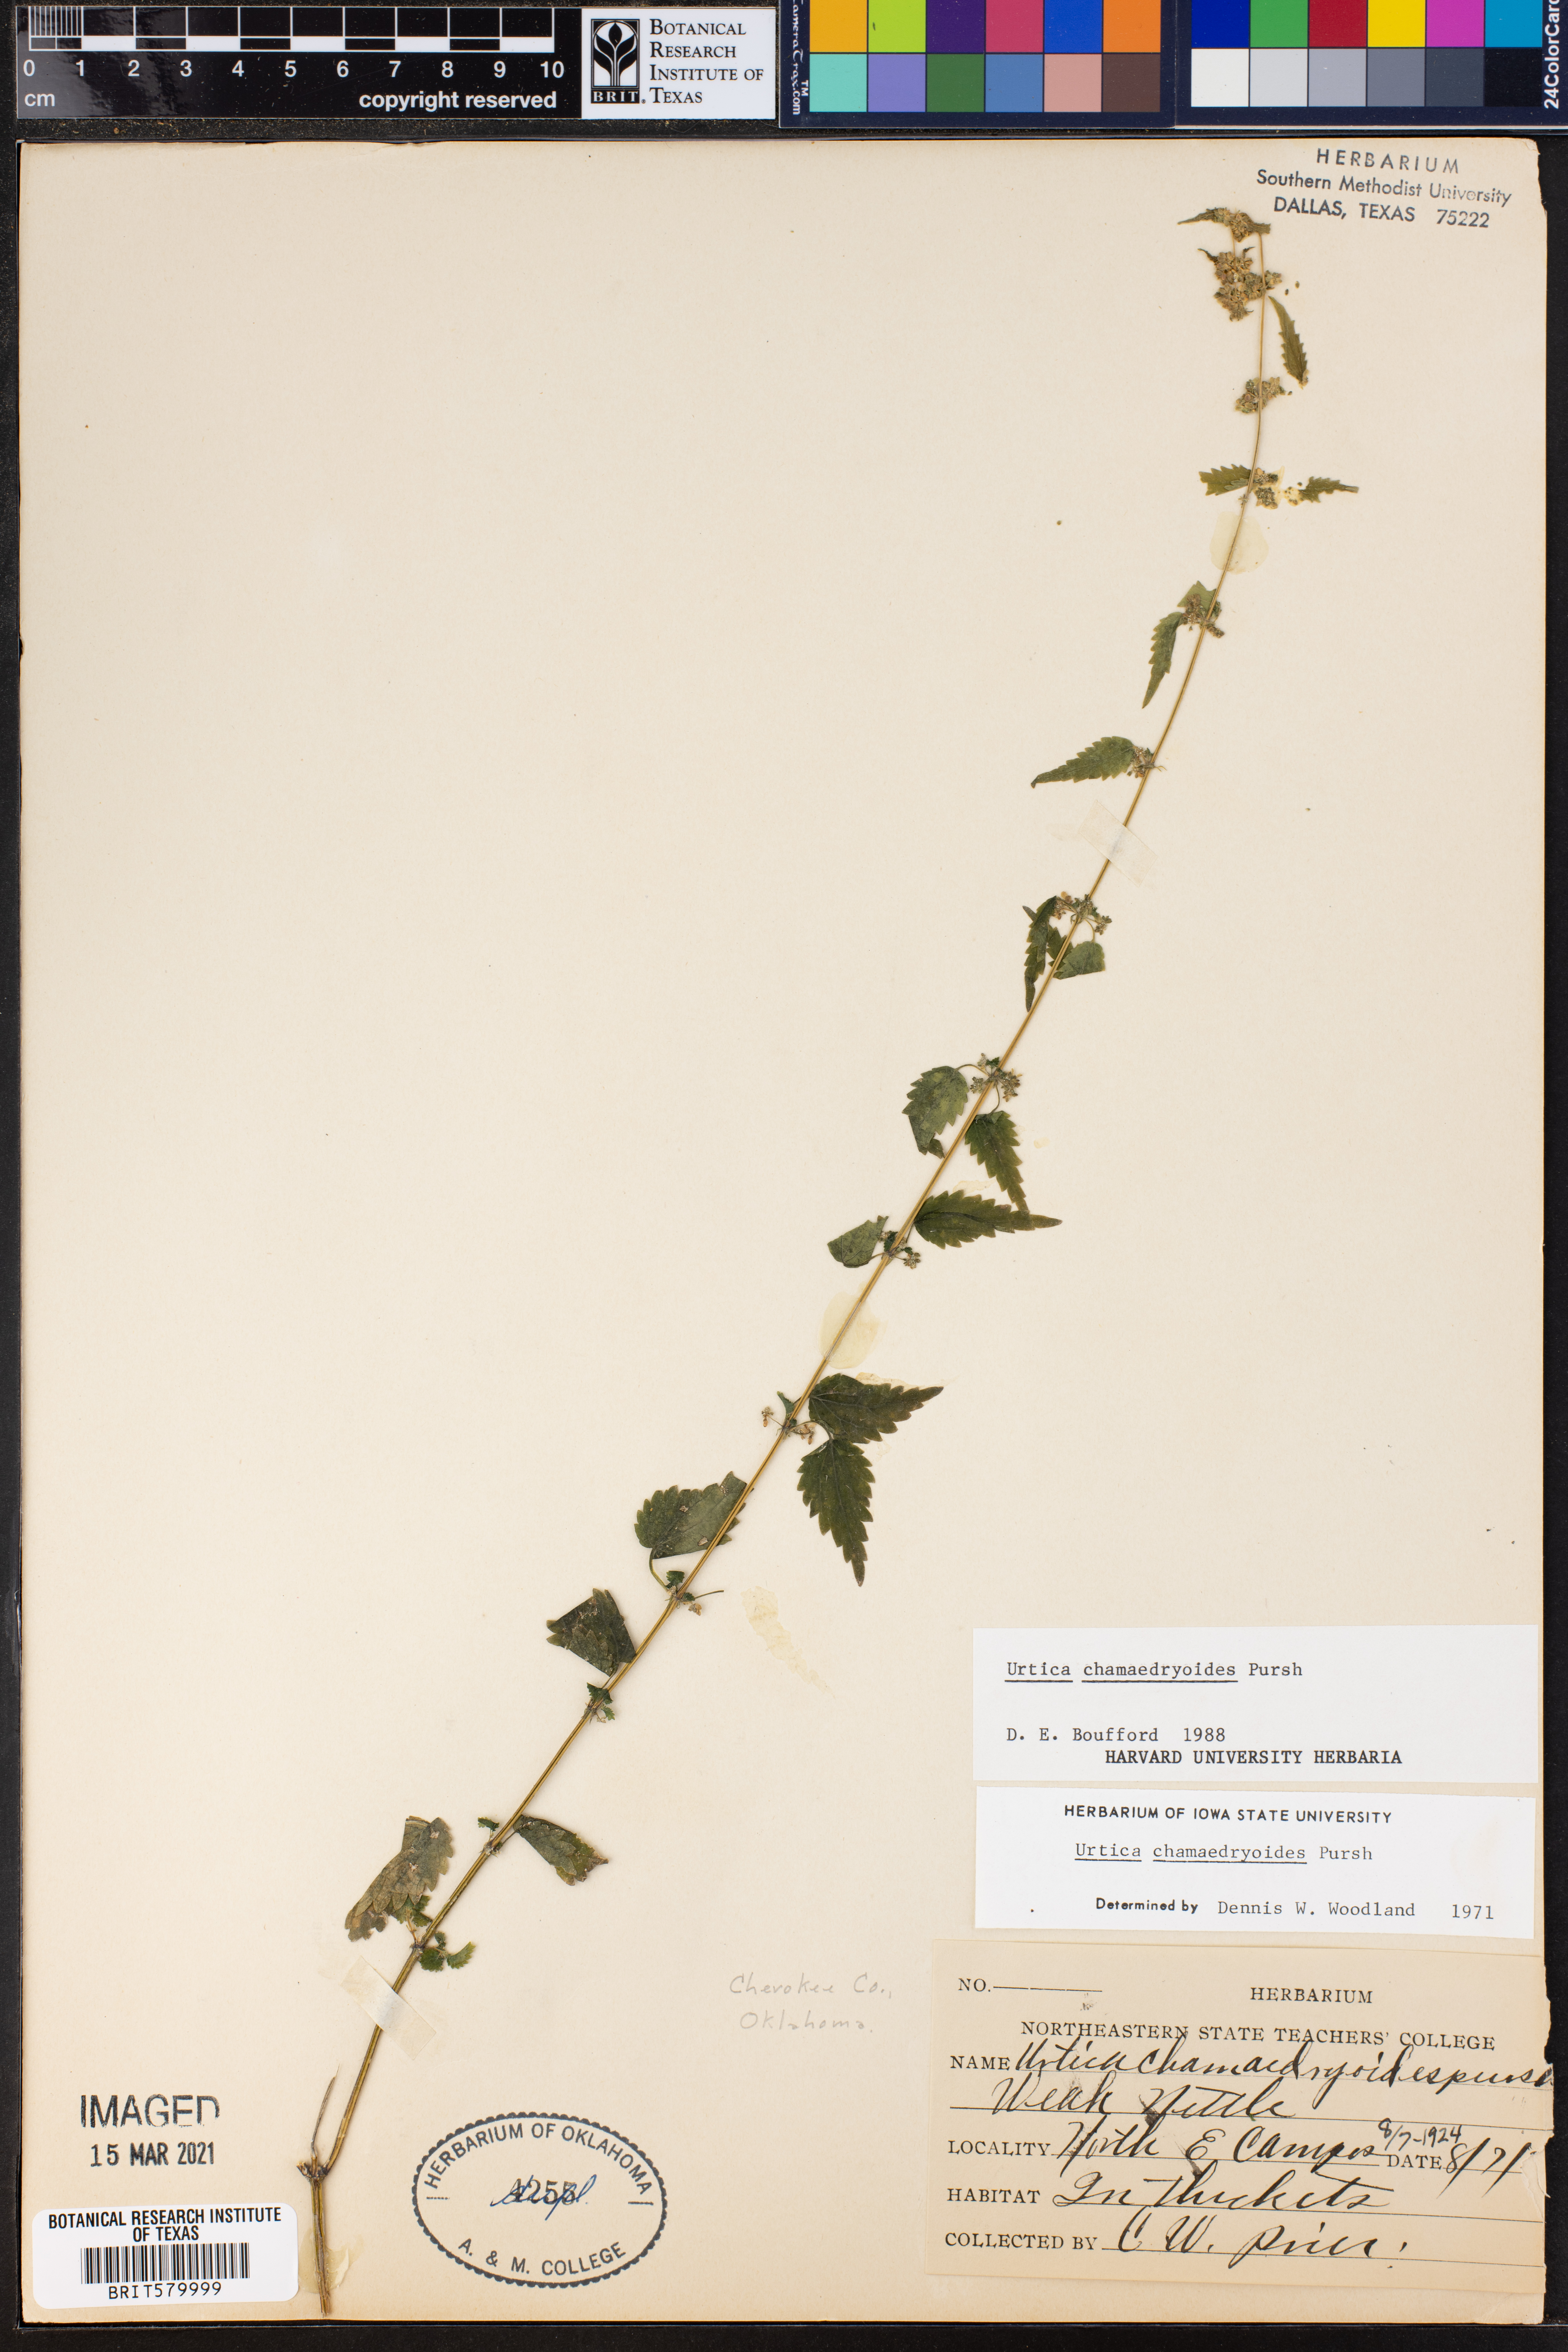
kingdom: Plantae
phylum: Tracheophyta
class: Magnoliopsida
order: Rosales
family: Urticaceae
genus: Urtica
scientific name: Urtica chamaedryoides
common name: Heart-leaf nettle
